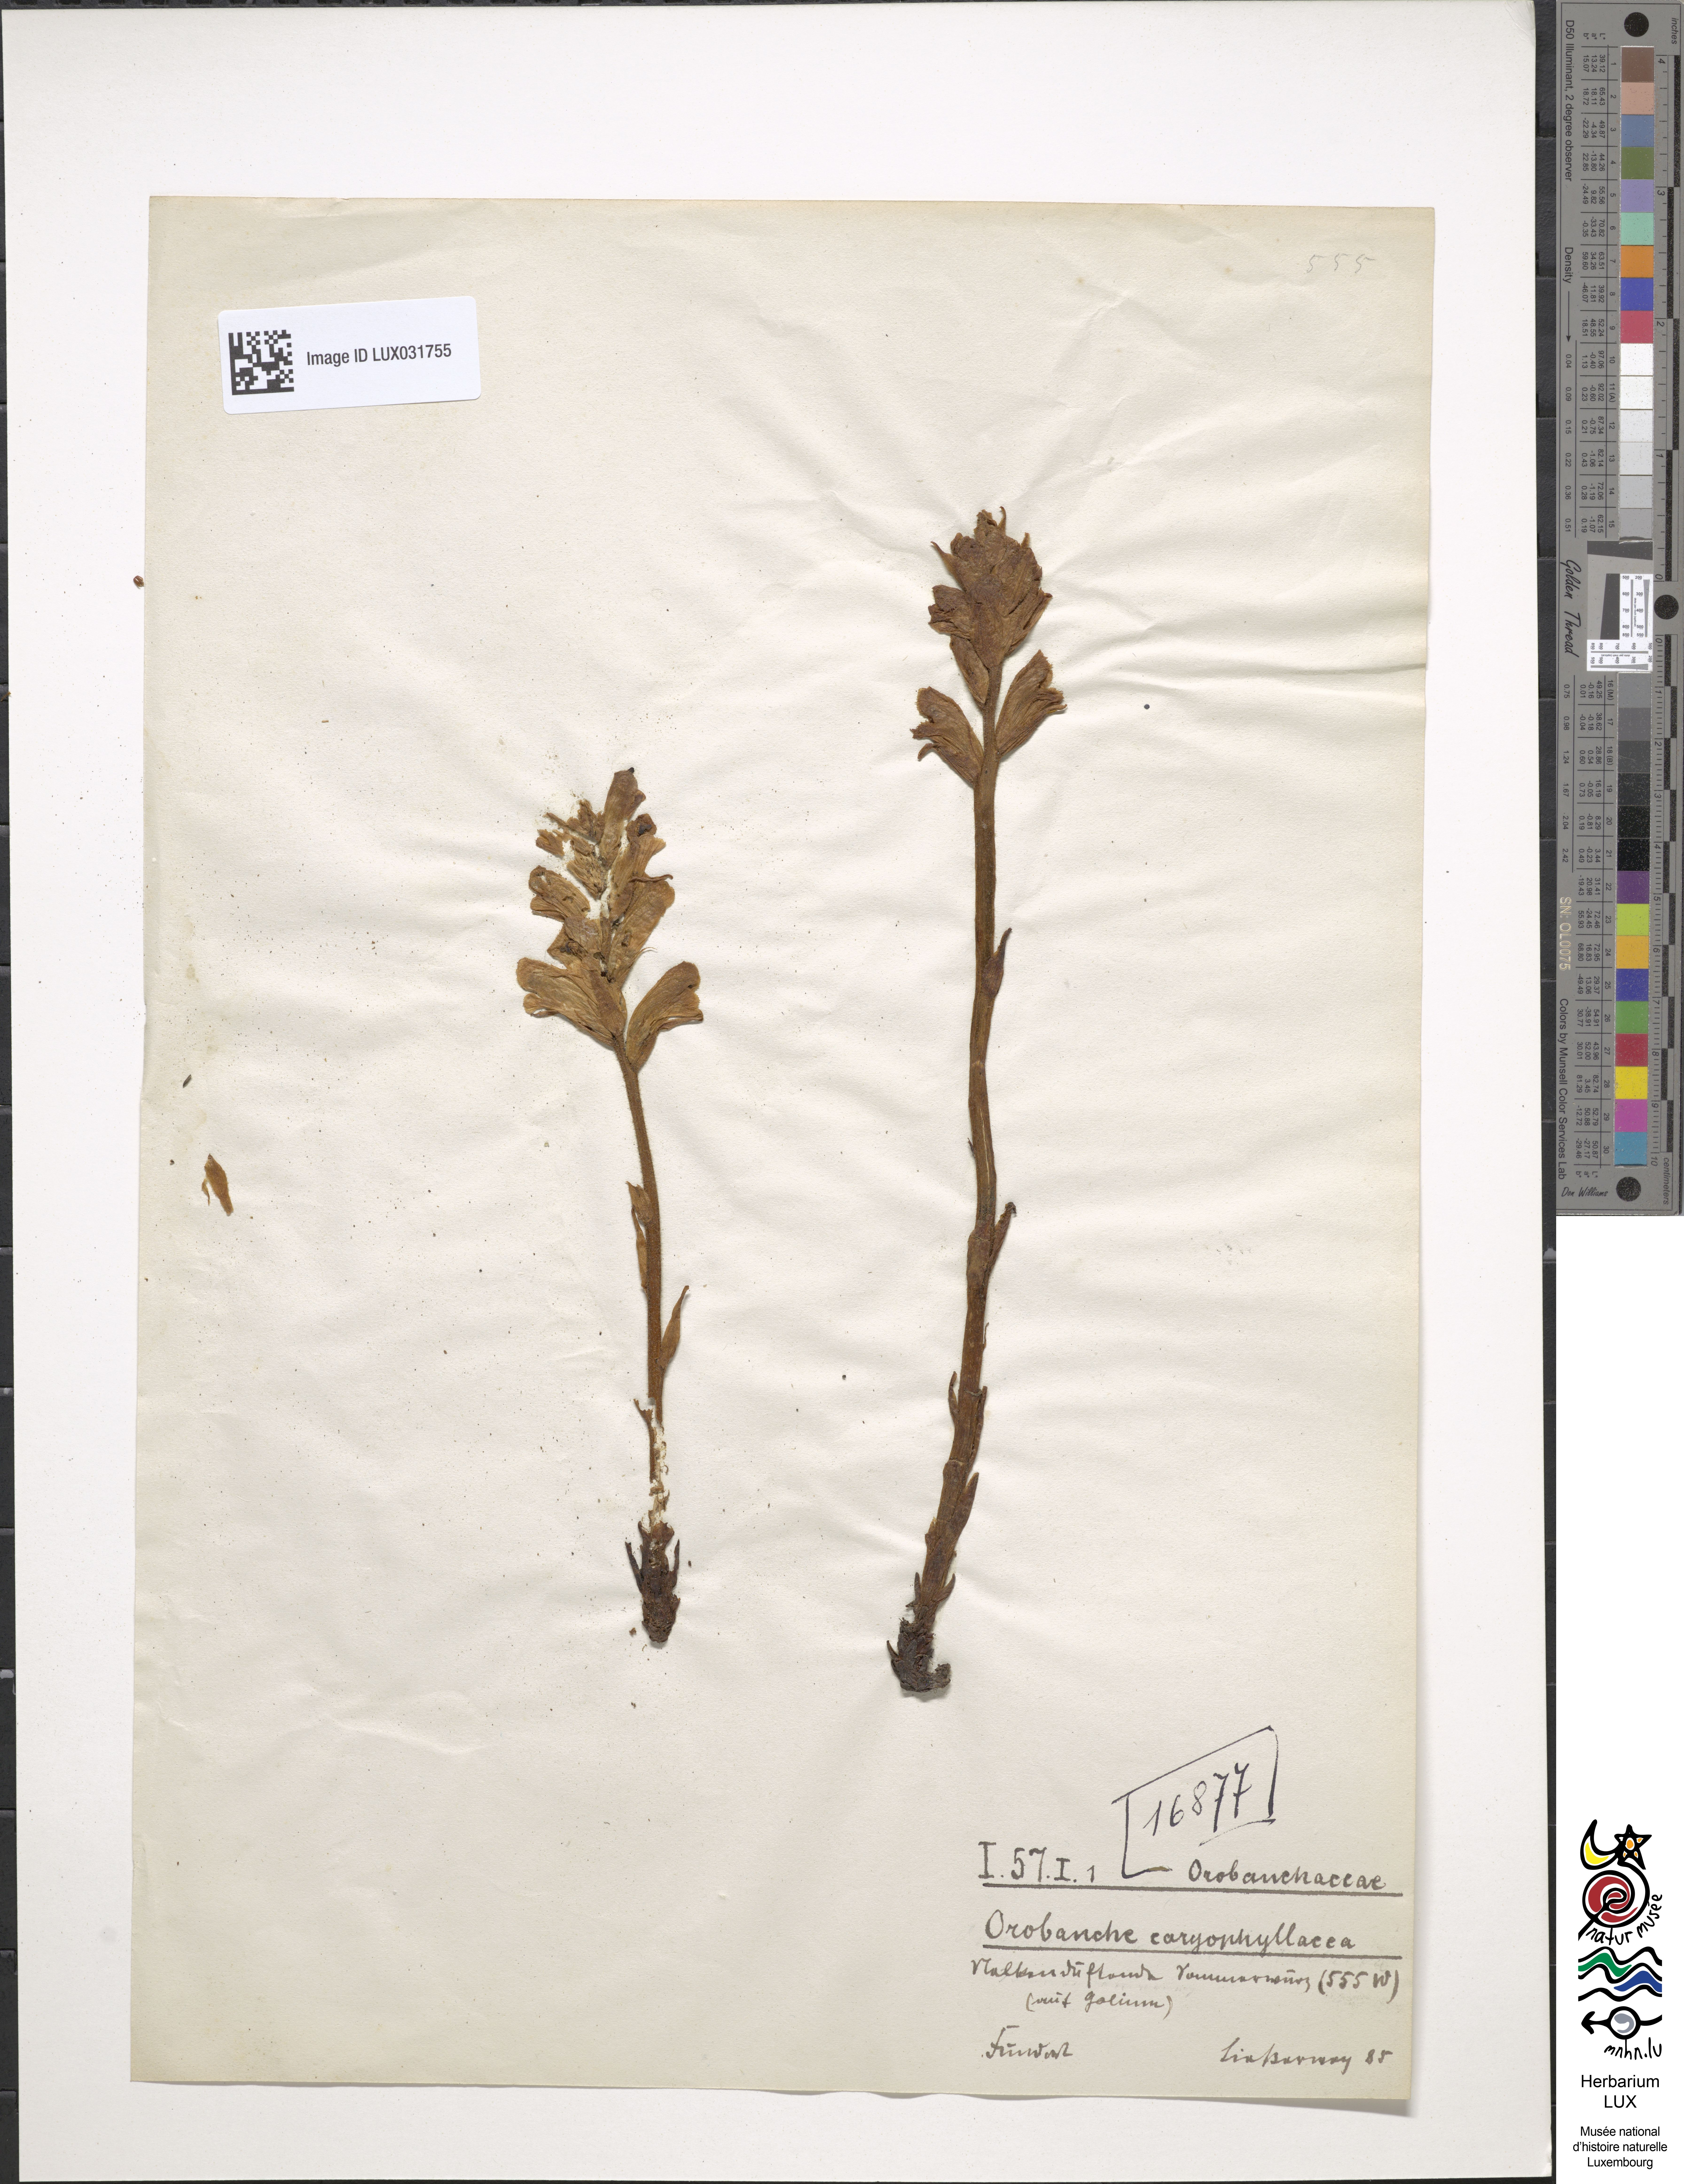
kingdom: Plantae
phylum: Tracheophyta
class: Magnoliopsida
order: Lamiales
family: Orobanchaceae
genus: Orobanche
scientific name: Orobanche caryophyllacea
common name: Bedstraw broomrape
